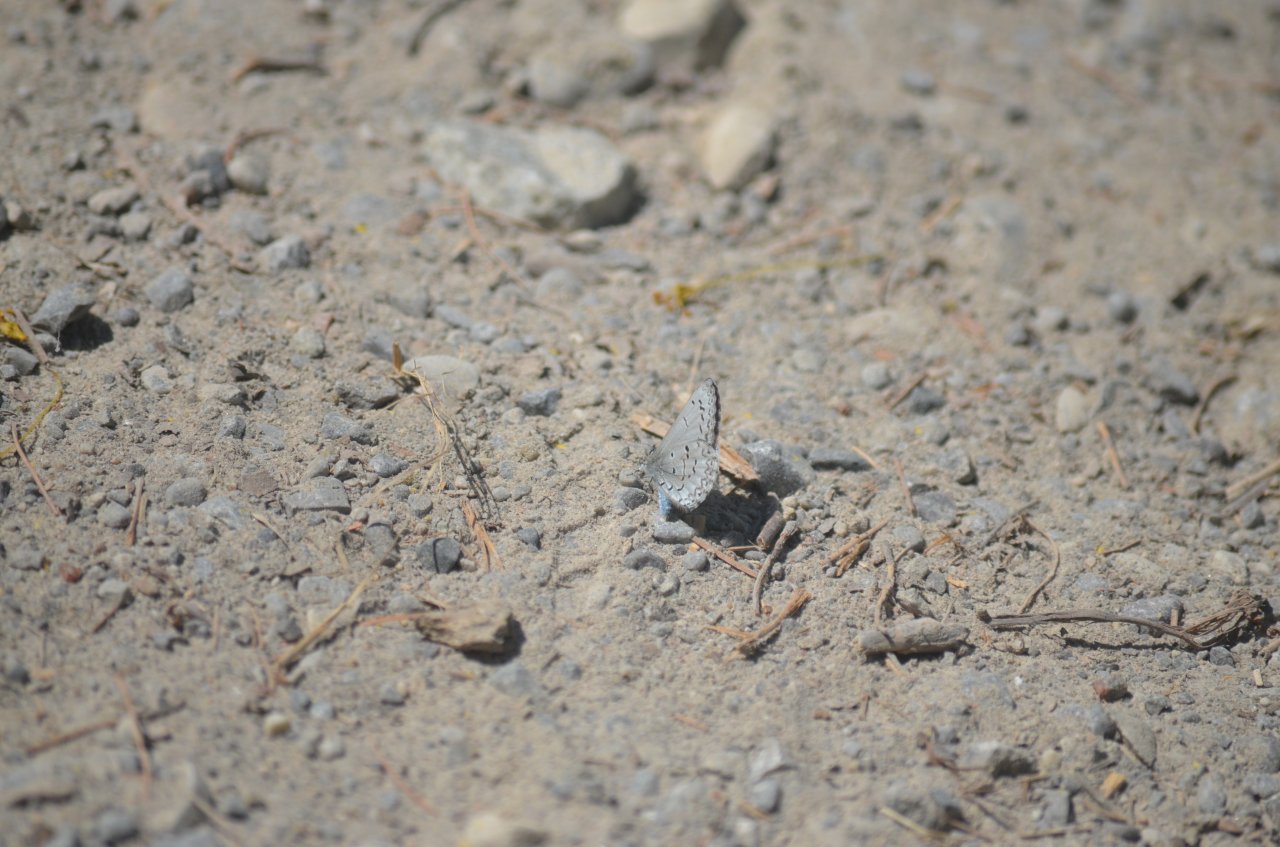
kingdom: Animalia
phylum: Arthropoda
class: Insecta
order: Lepidoptera
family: Lycaenidae
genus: Celastrina
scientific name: Celastrina lucia
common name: Northern Spring Azure
